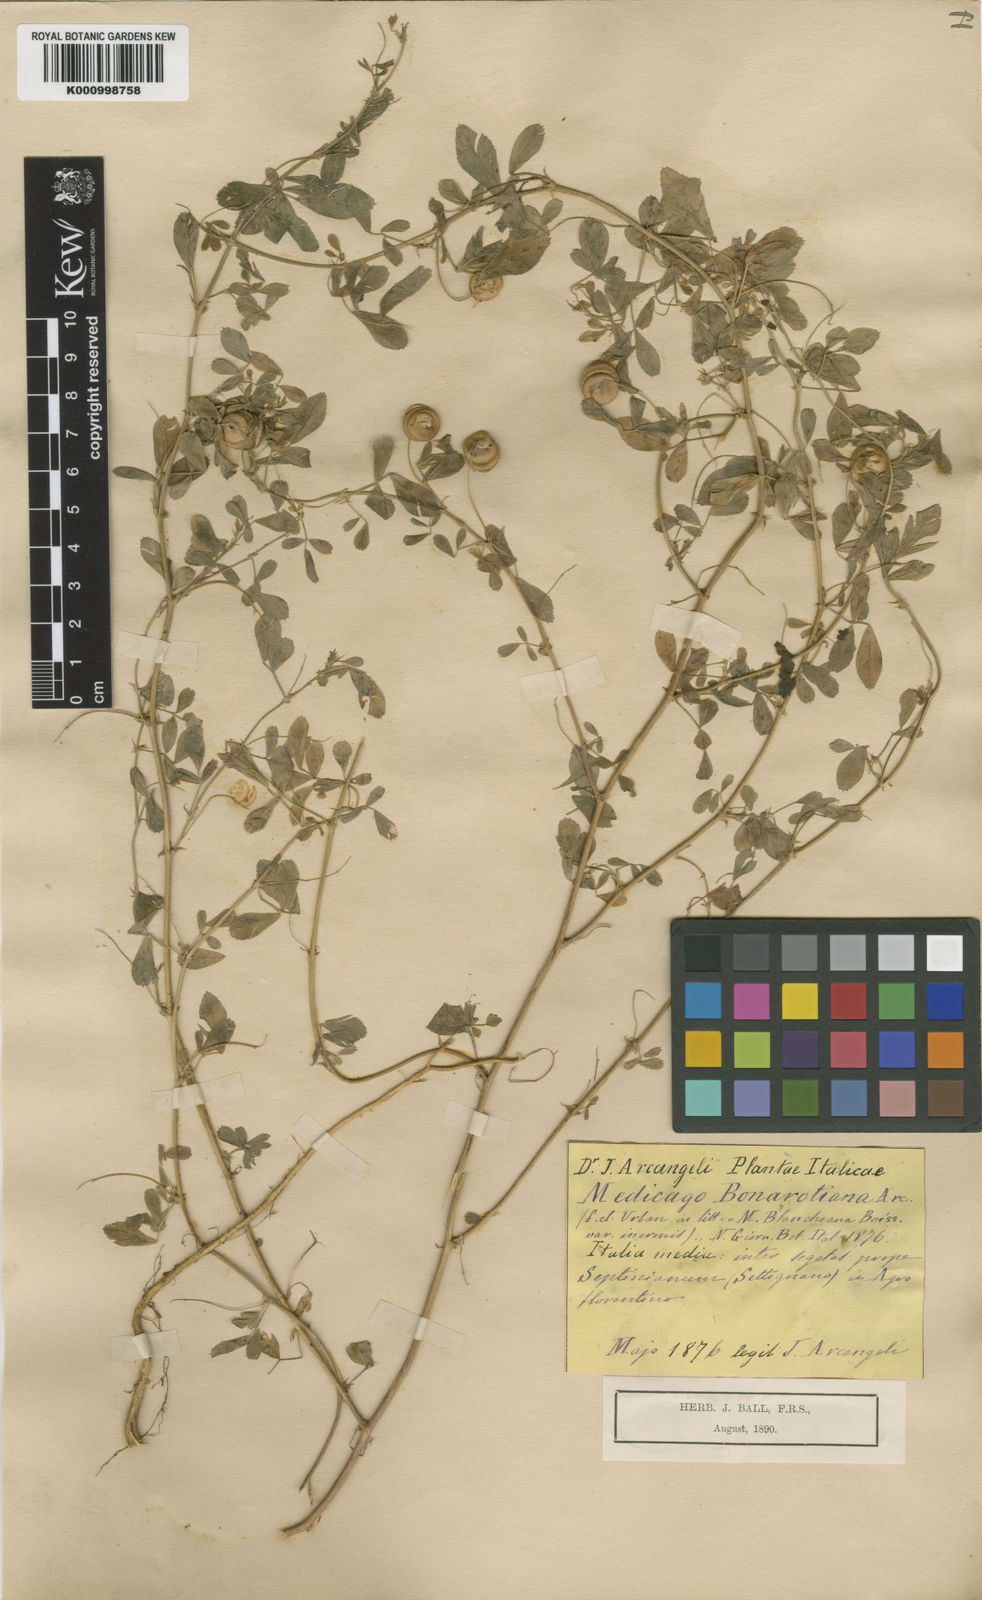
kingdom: Plantae
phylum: Tracheophyta
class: Magnoliopsida
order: Fabales
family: Fabaceae
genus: Medicago
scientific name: Medicago blancheana
